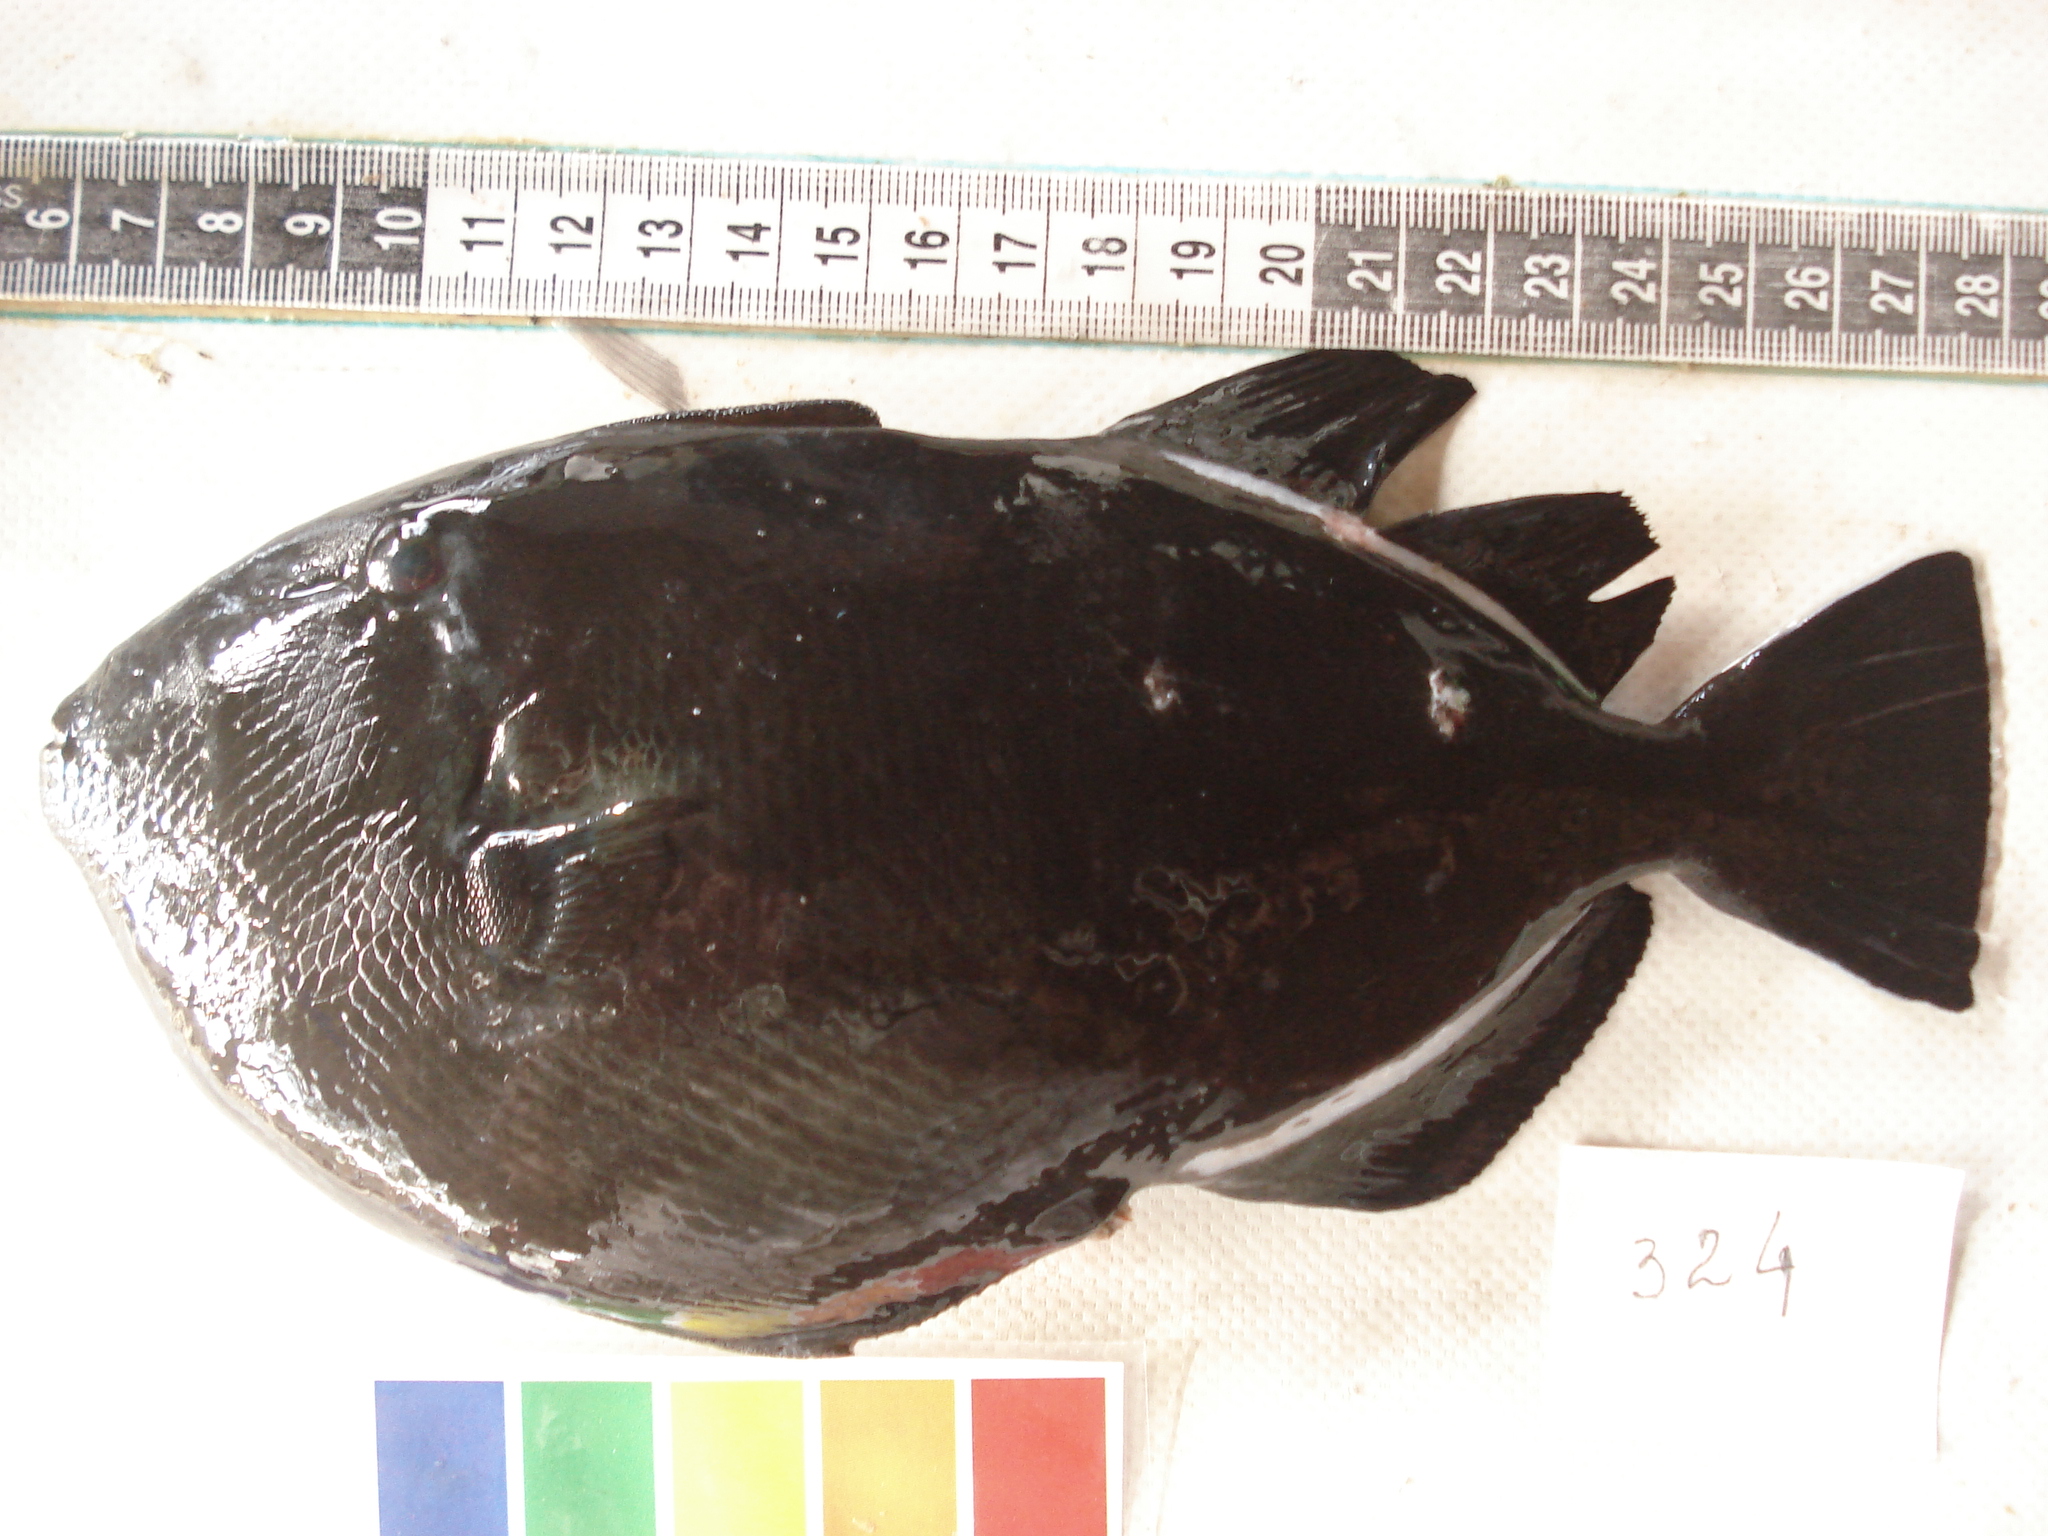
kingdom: Animalia
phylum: Chordata
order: Tetraodontiformes
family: Balistidae
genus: Melichthys
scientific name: Melichthys indicus
